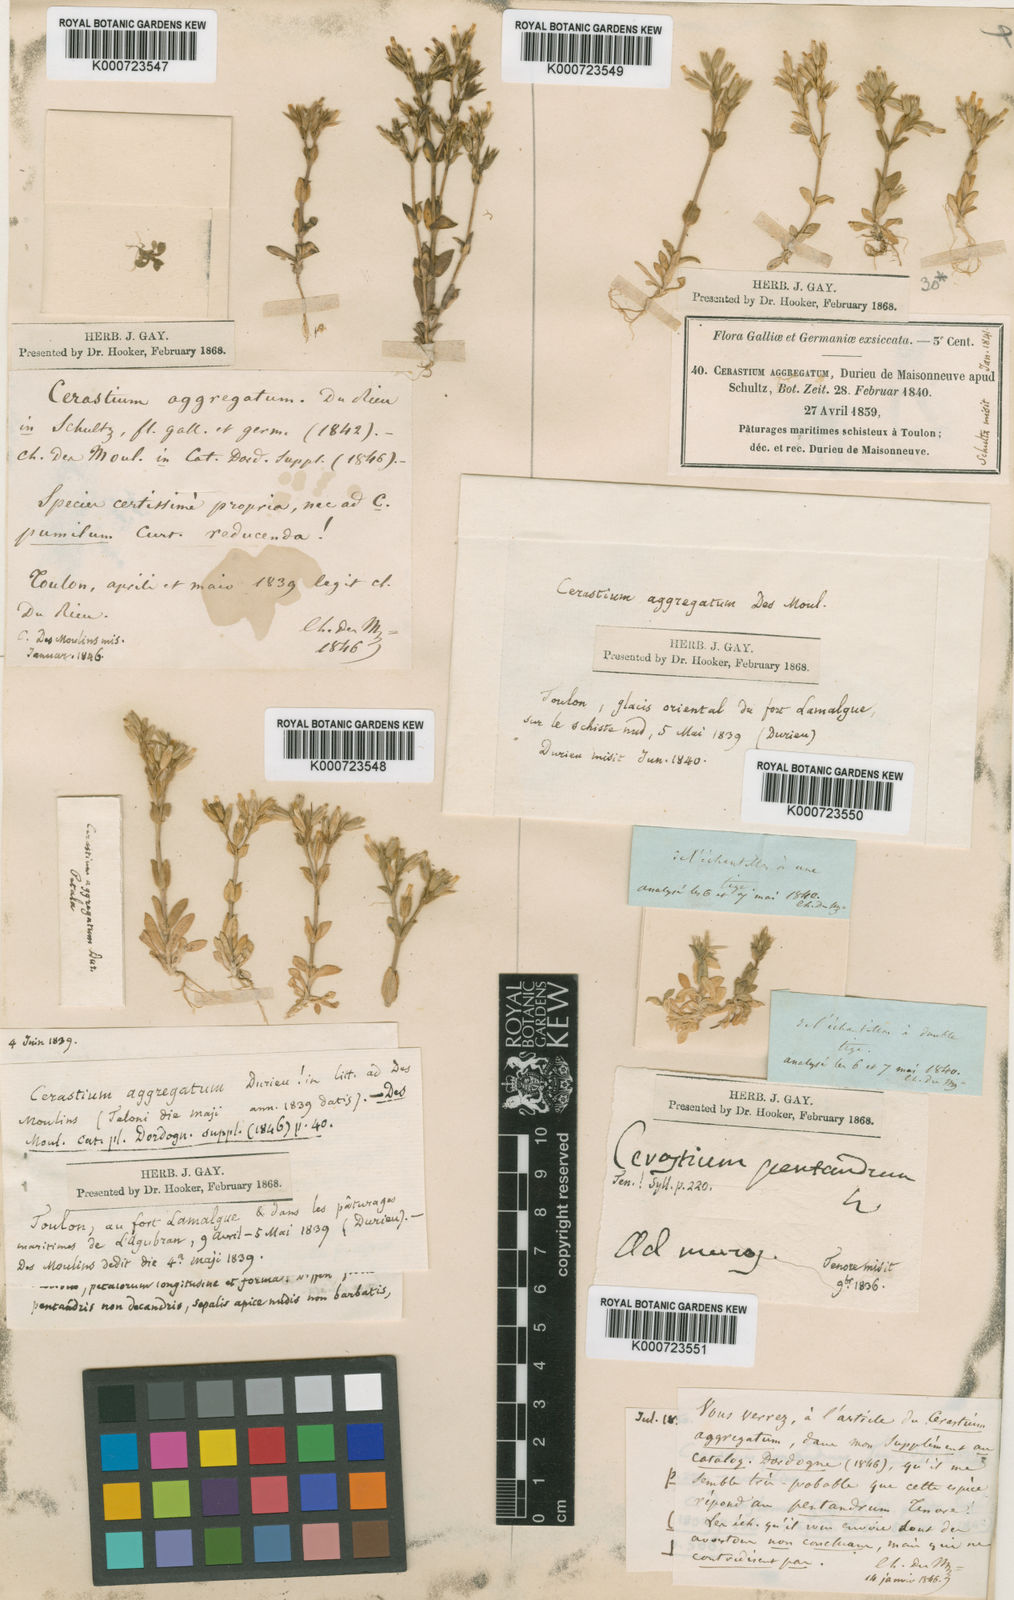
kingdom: Plantae
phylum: Tracheophyta
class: Magnoliopsida
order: Caryophyllales
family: Caryophyllaceae
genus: Cerastium
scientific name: Cerastium siculum
